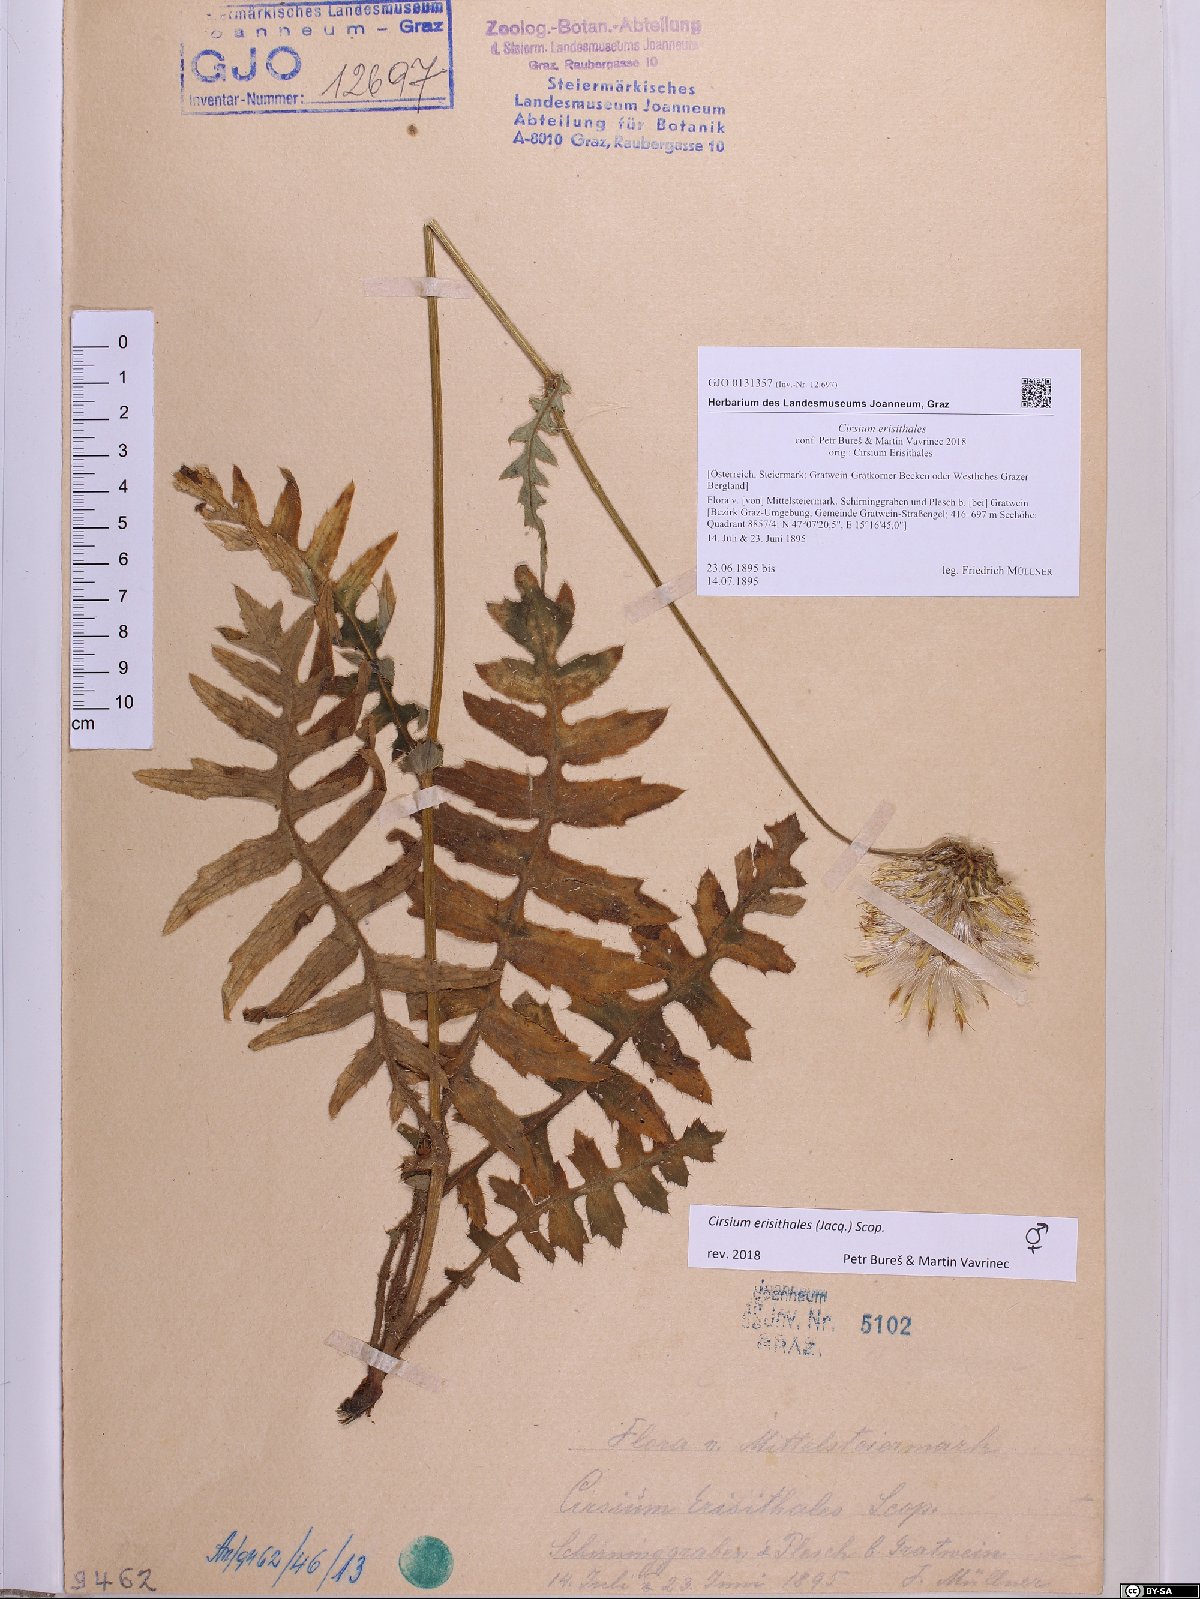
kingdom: Plantae
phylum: Tracheophyta
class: Magnoliopsida
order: Asterales
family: Asteraceae
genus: Cirsium
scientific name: Cirsium erisithales
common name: Yellow thistle
